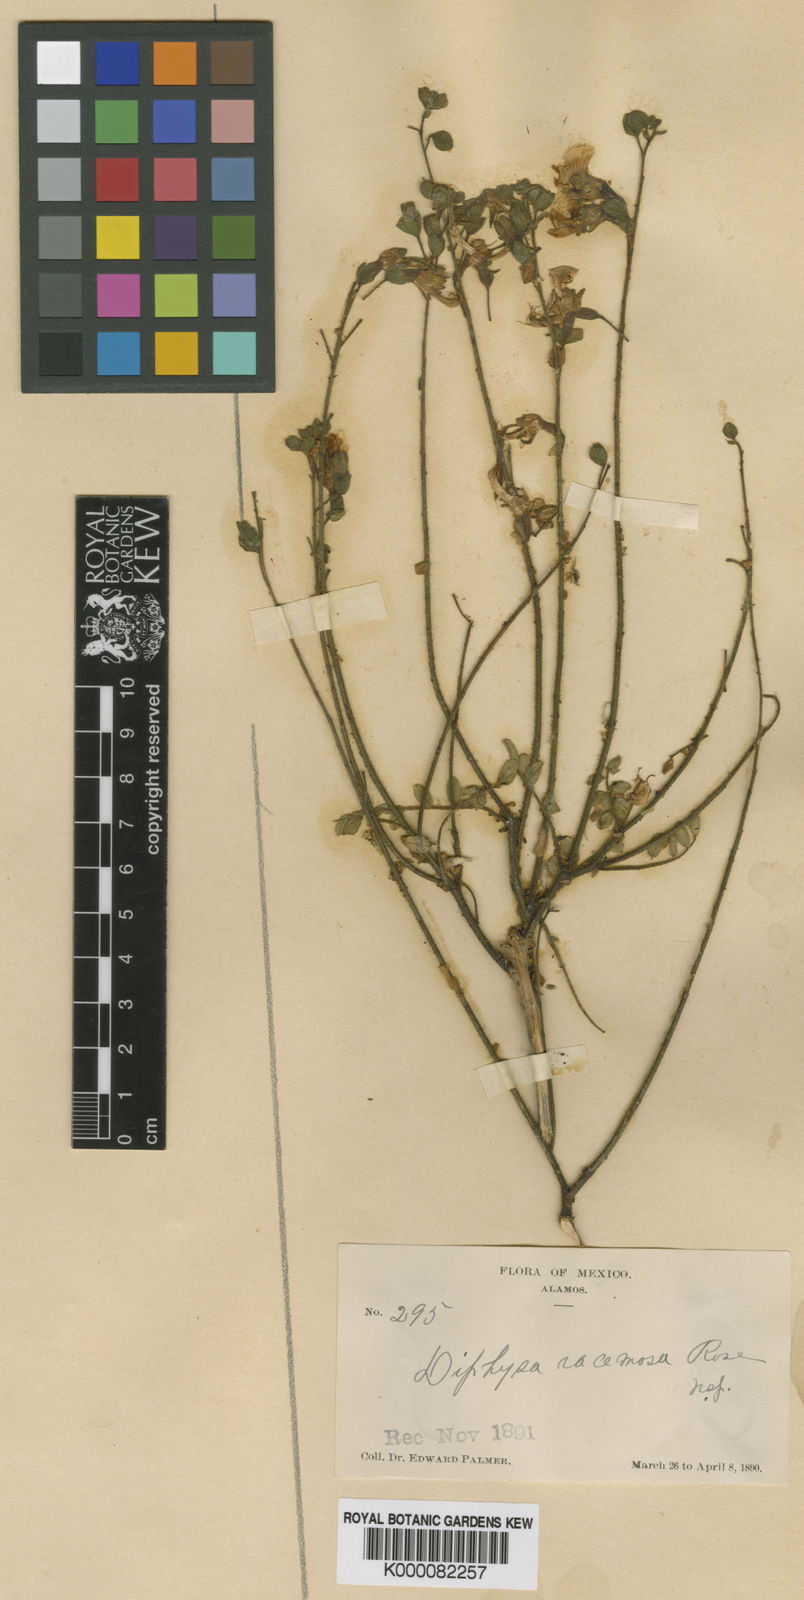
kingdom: Plantae
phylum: Tracheophyta
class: Magnoliopsida
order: Fabales
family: Fabaceae
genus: Diphysa
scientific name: Diphysa racemosa
